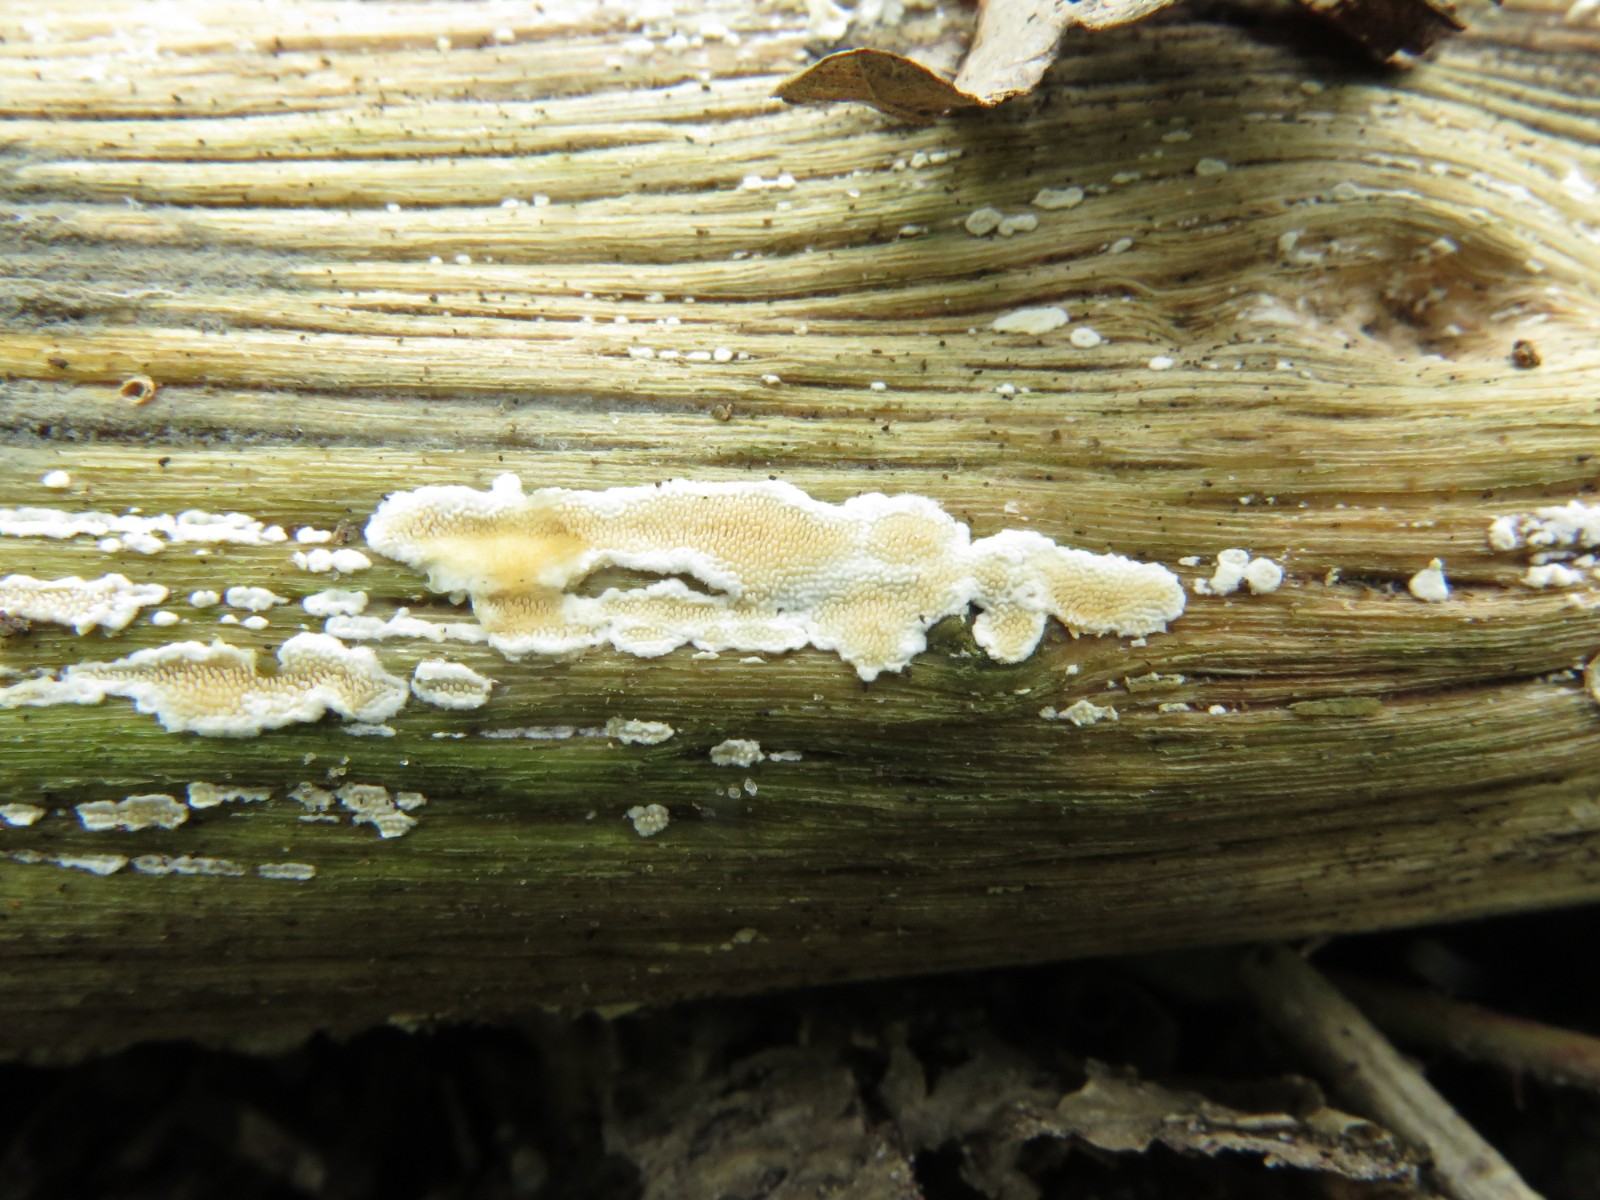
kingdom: Fungi
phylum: Basidiomycota
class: Agaricomycetes
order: Polyporales
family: Steccherinaceae
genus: Steccherinum
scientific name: Steccherinum ochraceum
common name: almindelig skønpig
